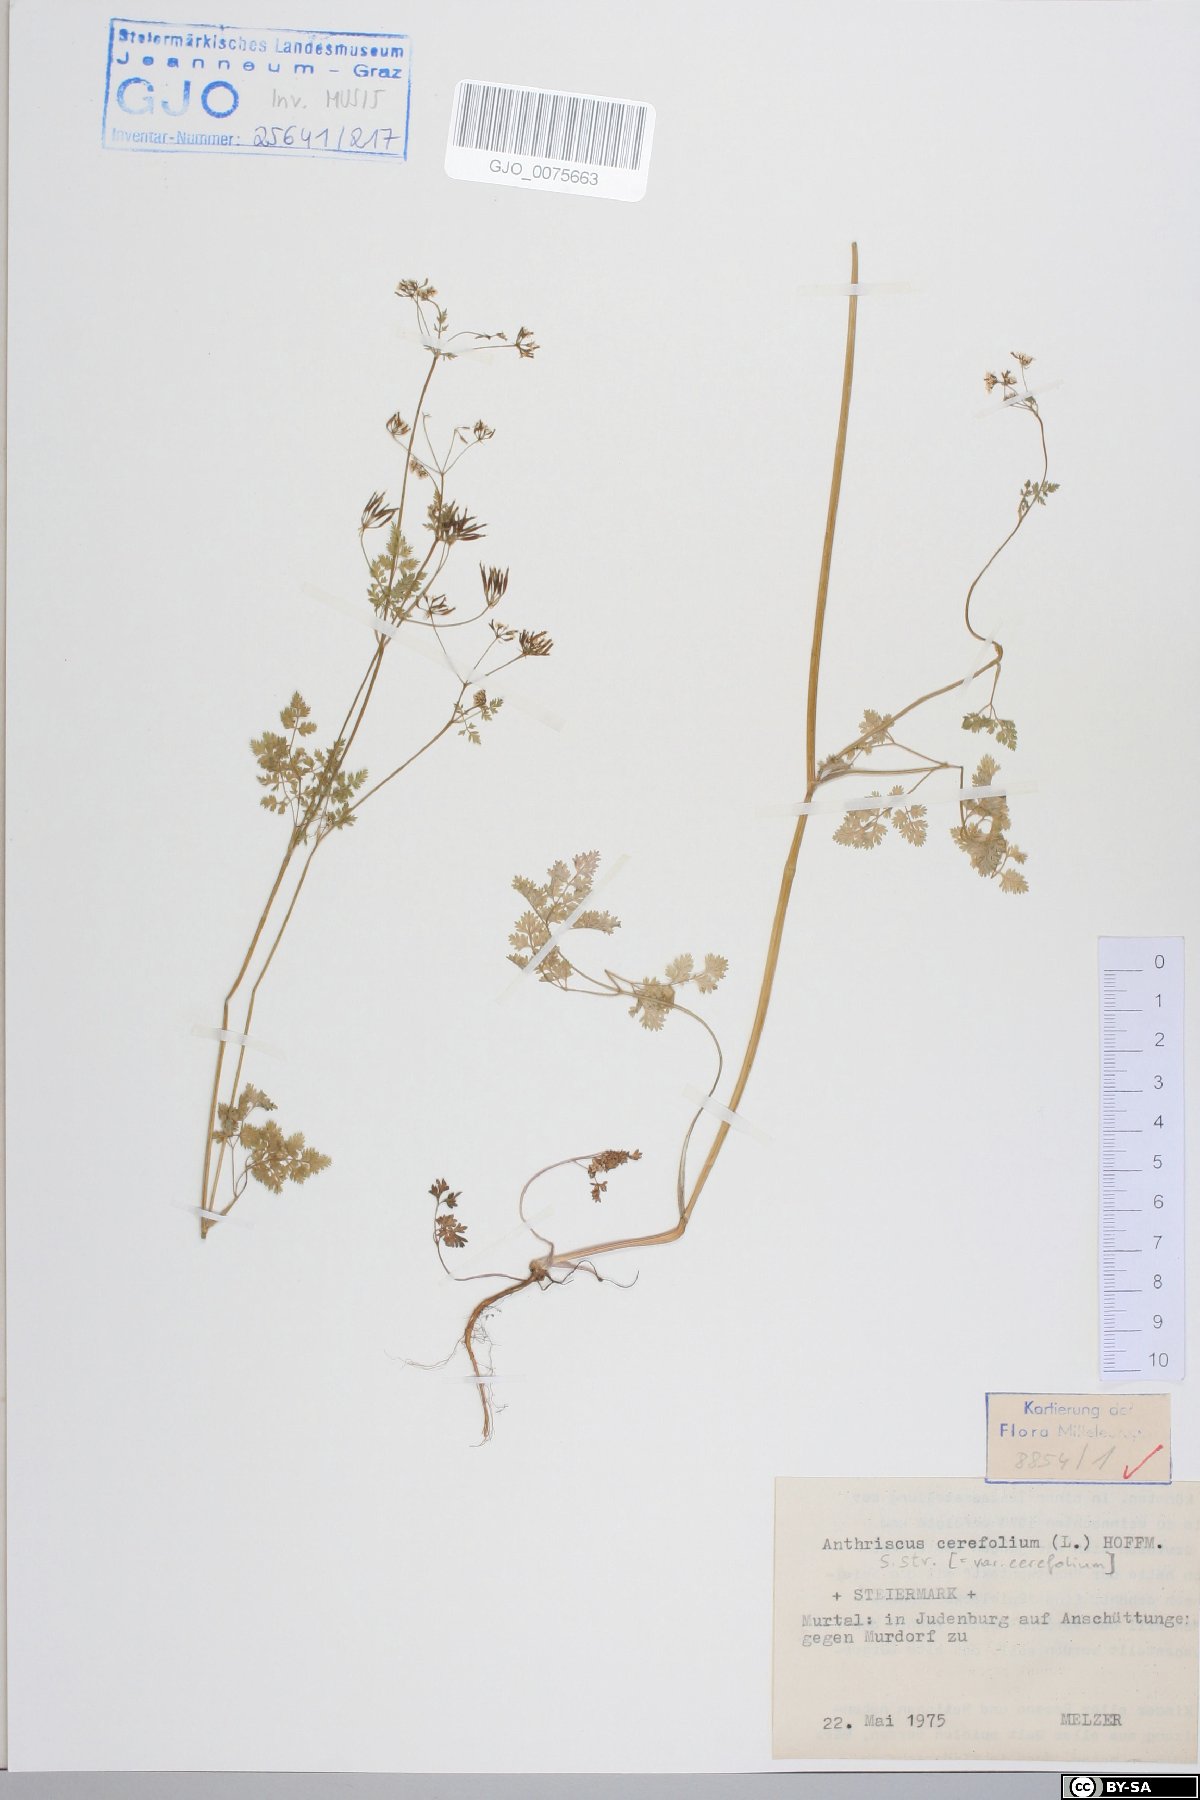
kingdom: Plantae
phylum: Tracheophyta
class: Magnoliopsida
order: Apiales
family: Apiaceae
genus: Anthriscus
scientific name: Anthriscus cerefolium
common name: Garden chervil
